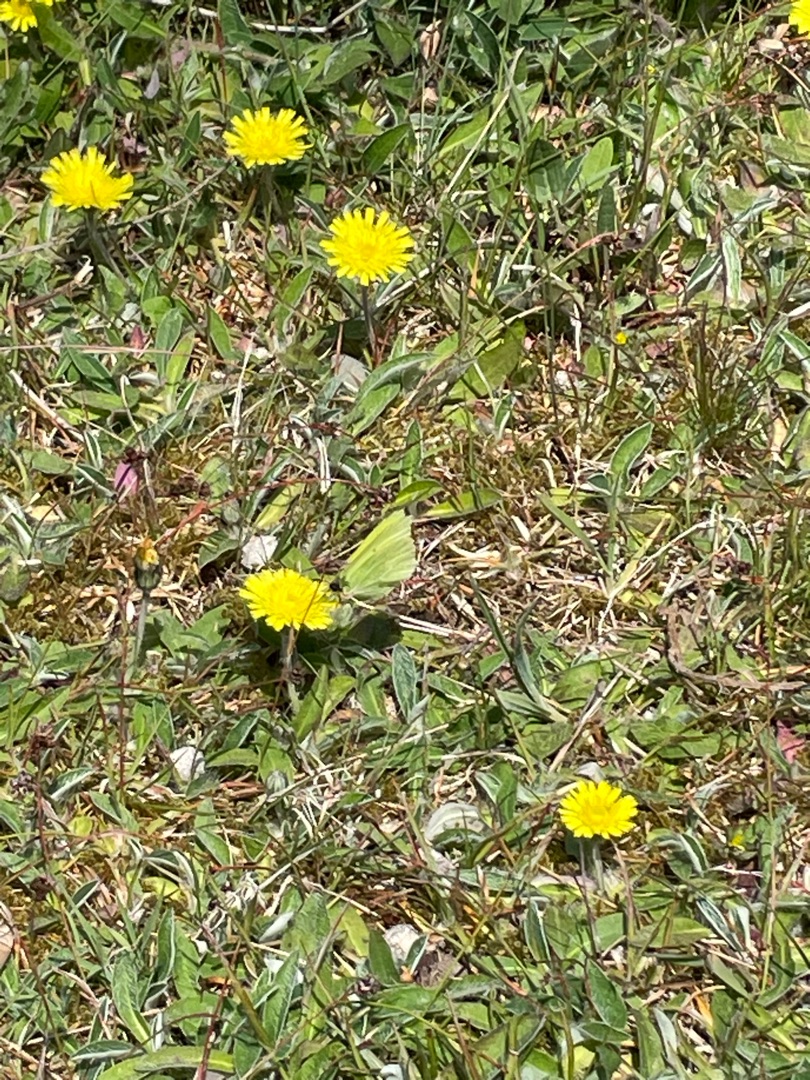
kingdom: Animalia
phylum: Arthropoda
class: Insecta
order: Lepidoptera
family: Pieridae
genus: Gonepteryx
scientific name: Gonepteryx rhamni
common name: Citronsommerfugl
